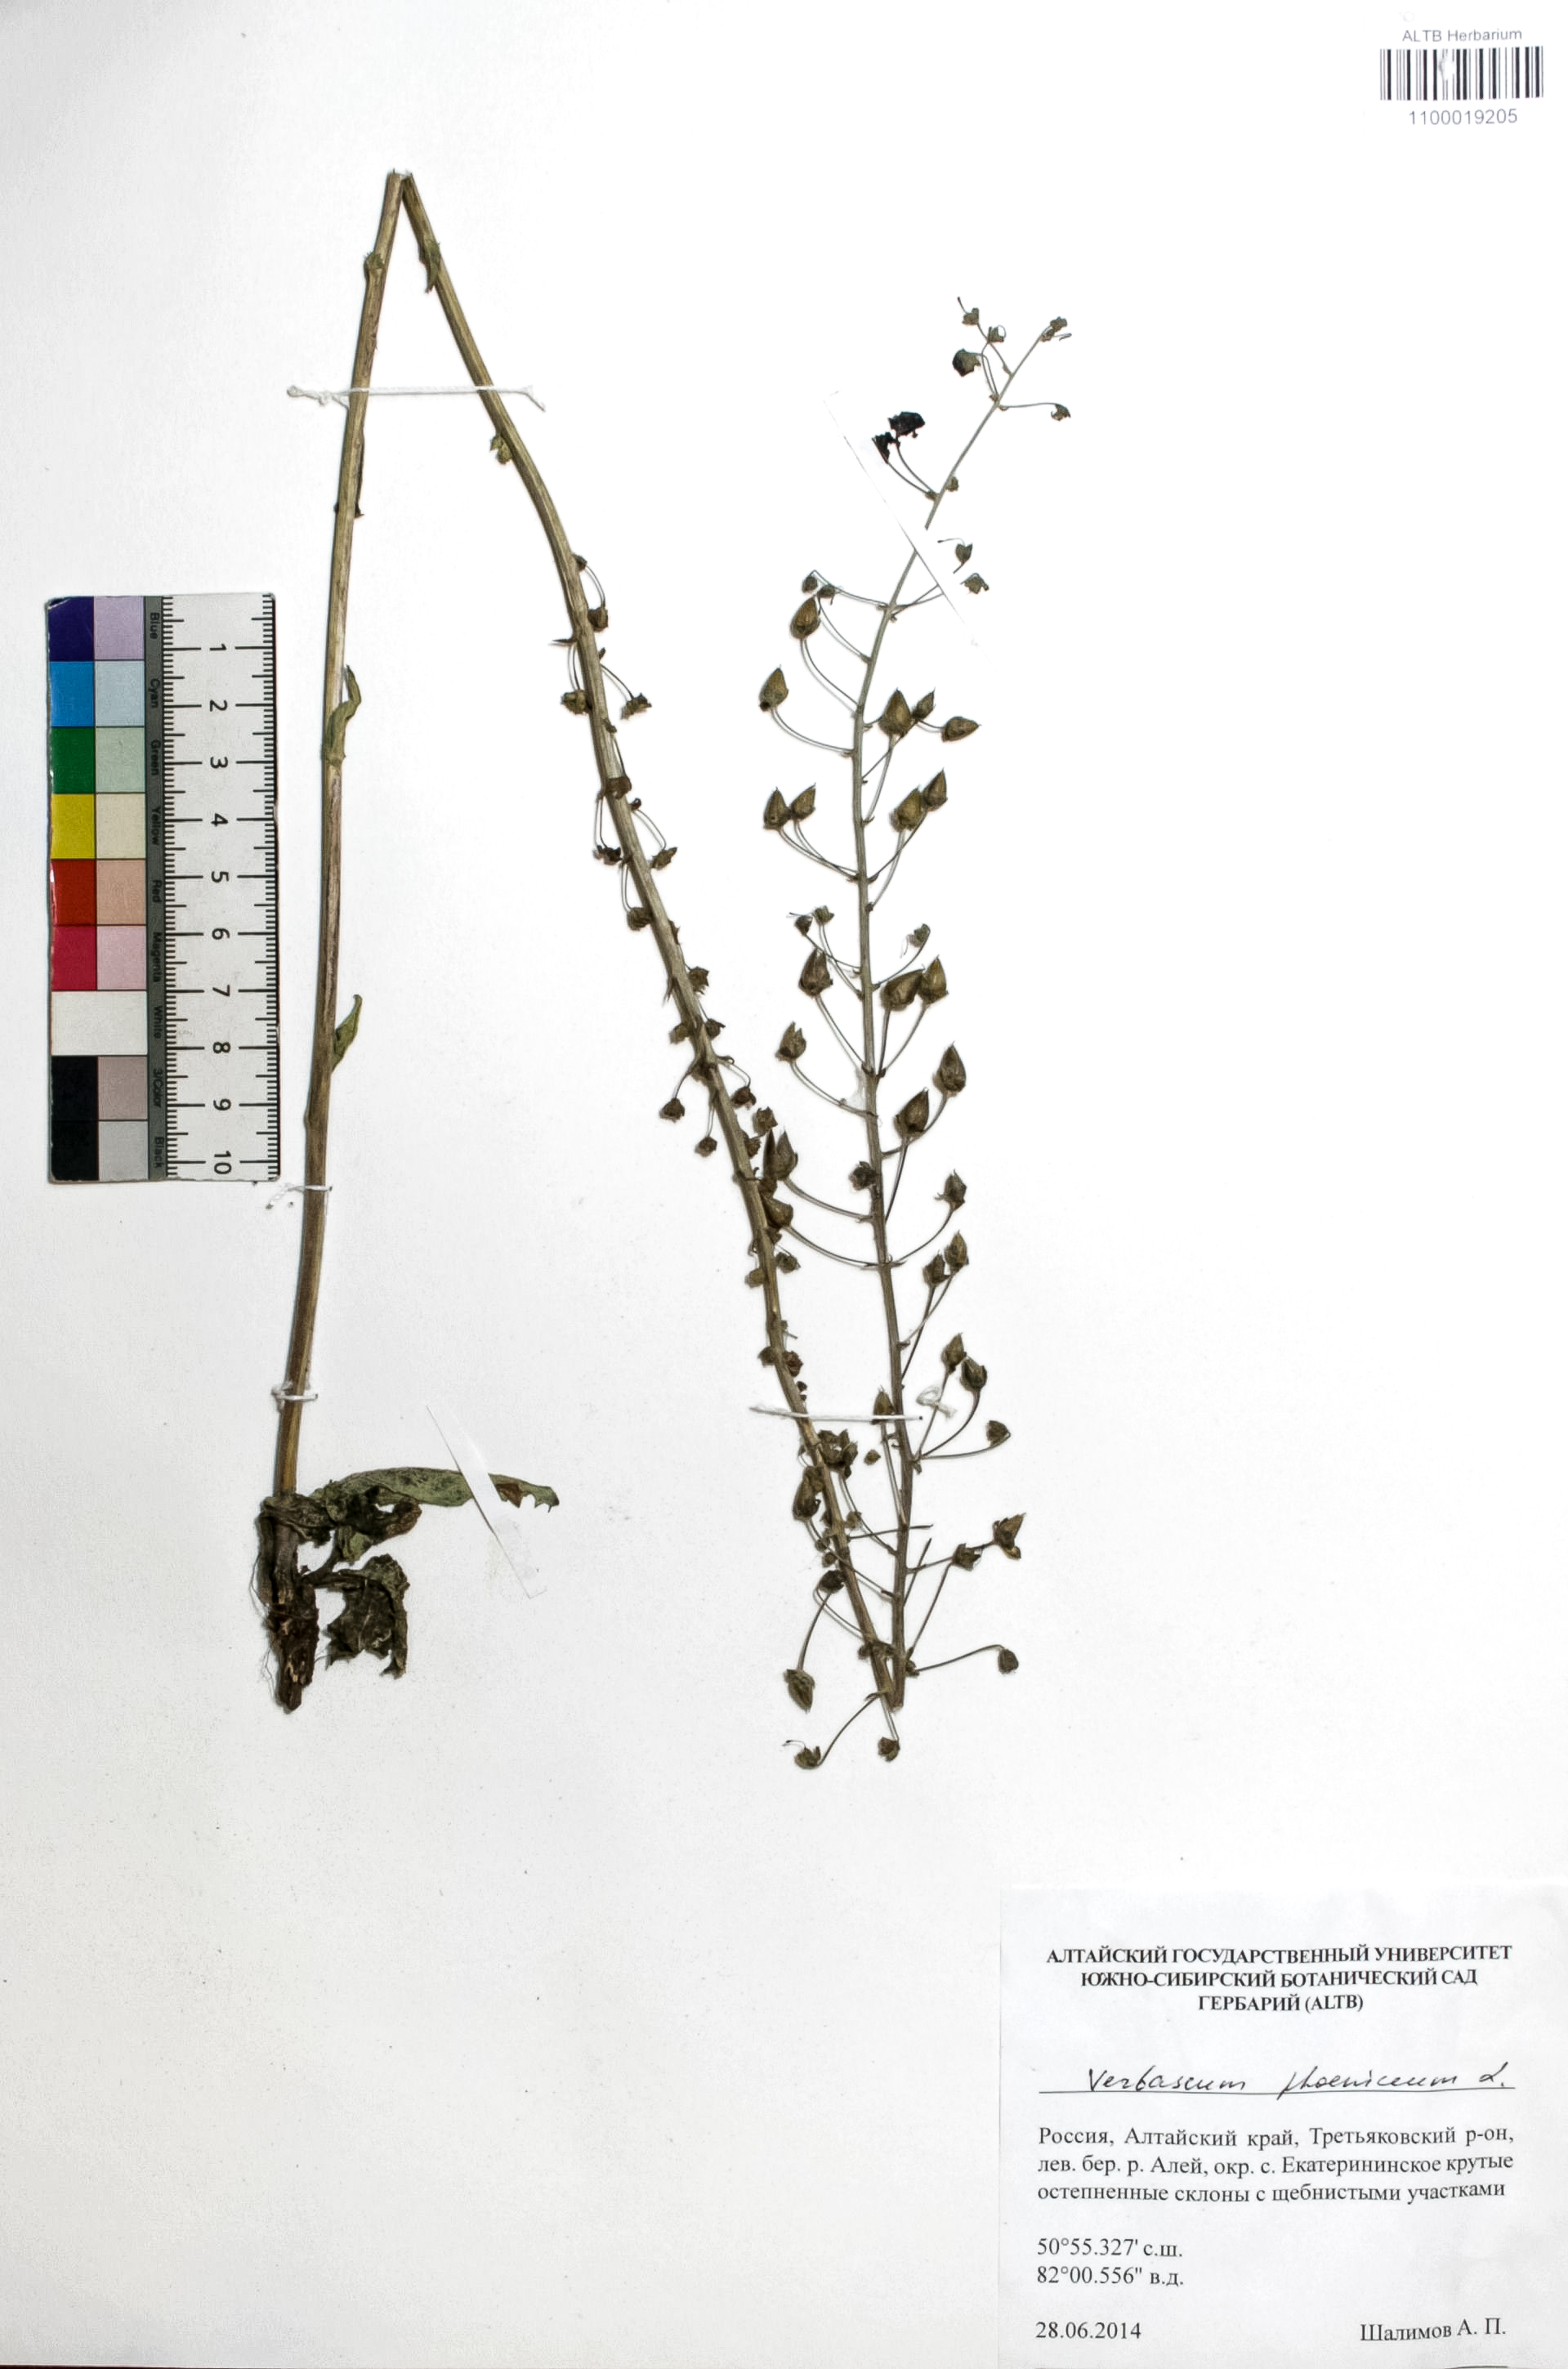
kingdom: Plantae
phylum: Tracheophyta
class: Magnoliopsida
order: Lamiales
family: Scrophulariaceae
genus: Verbascum
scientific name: Verbascum phoeniceum
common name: Purple mullein
